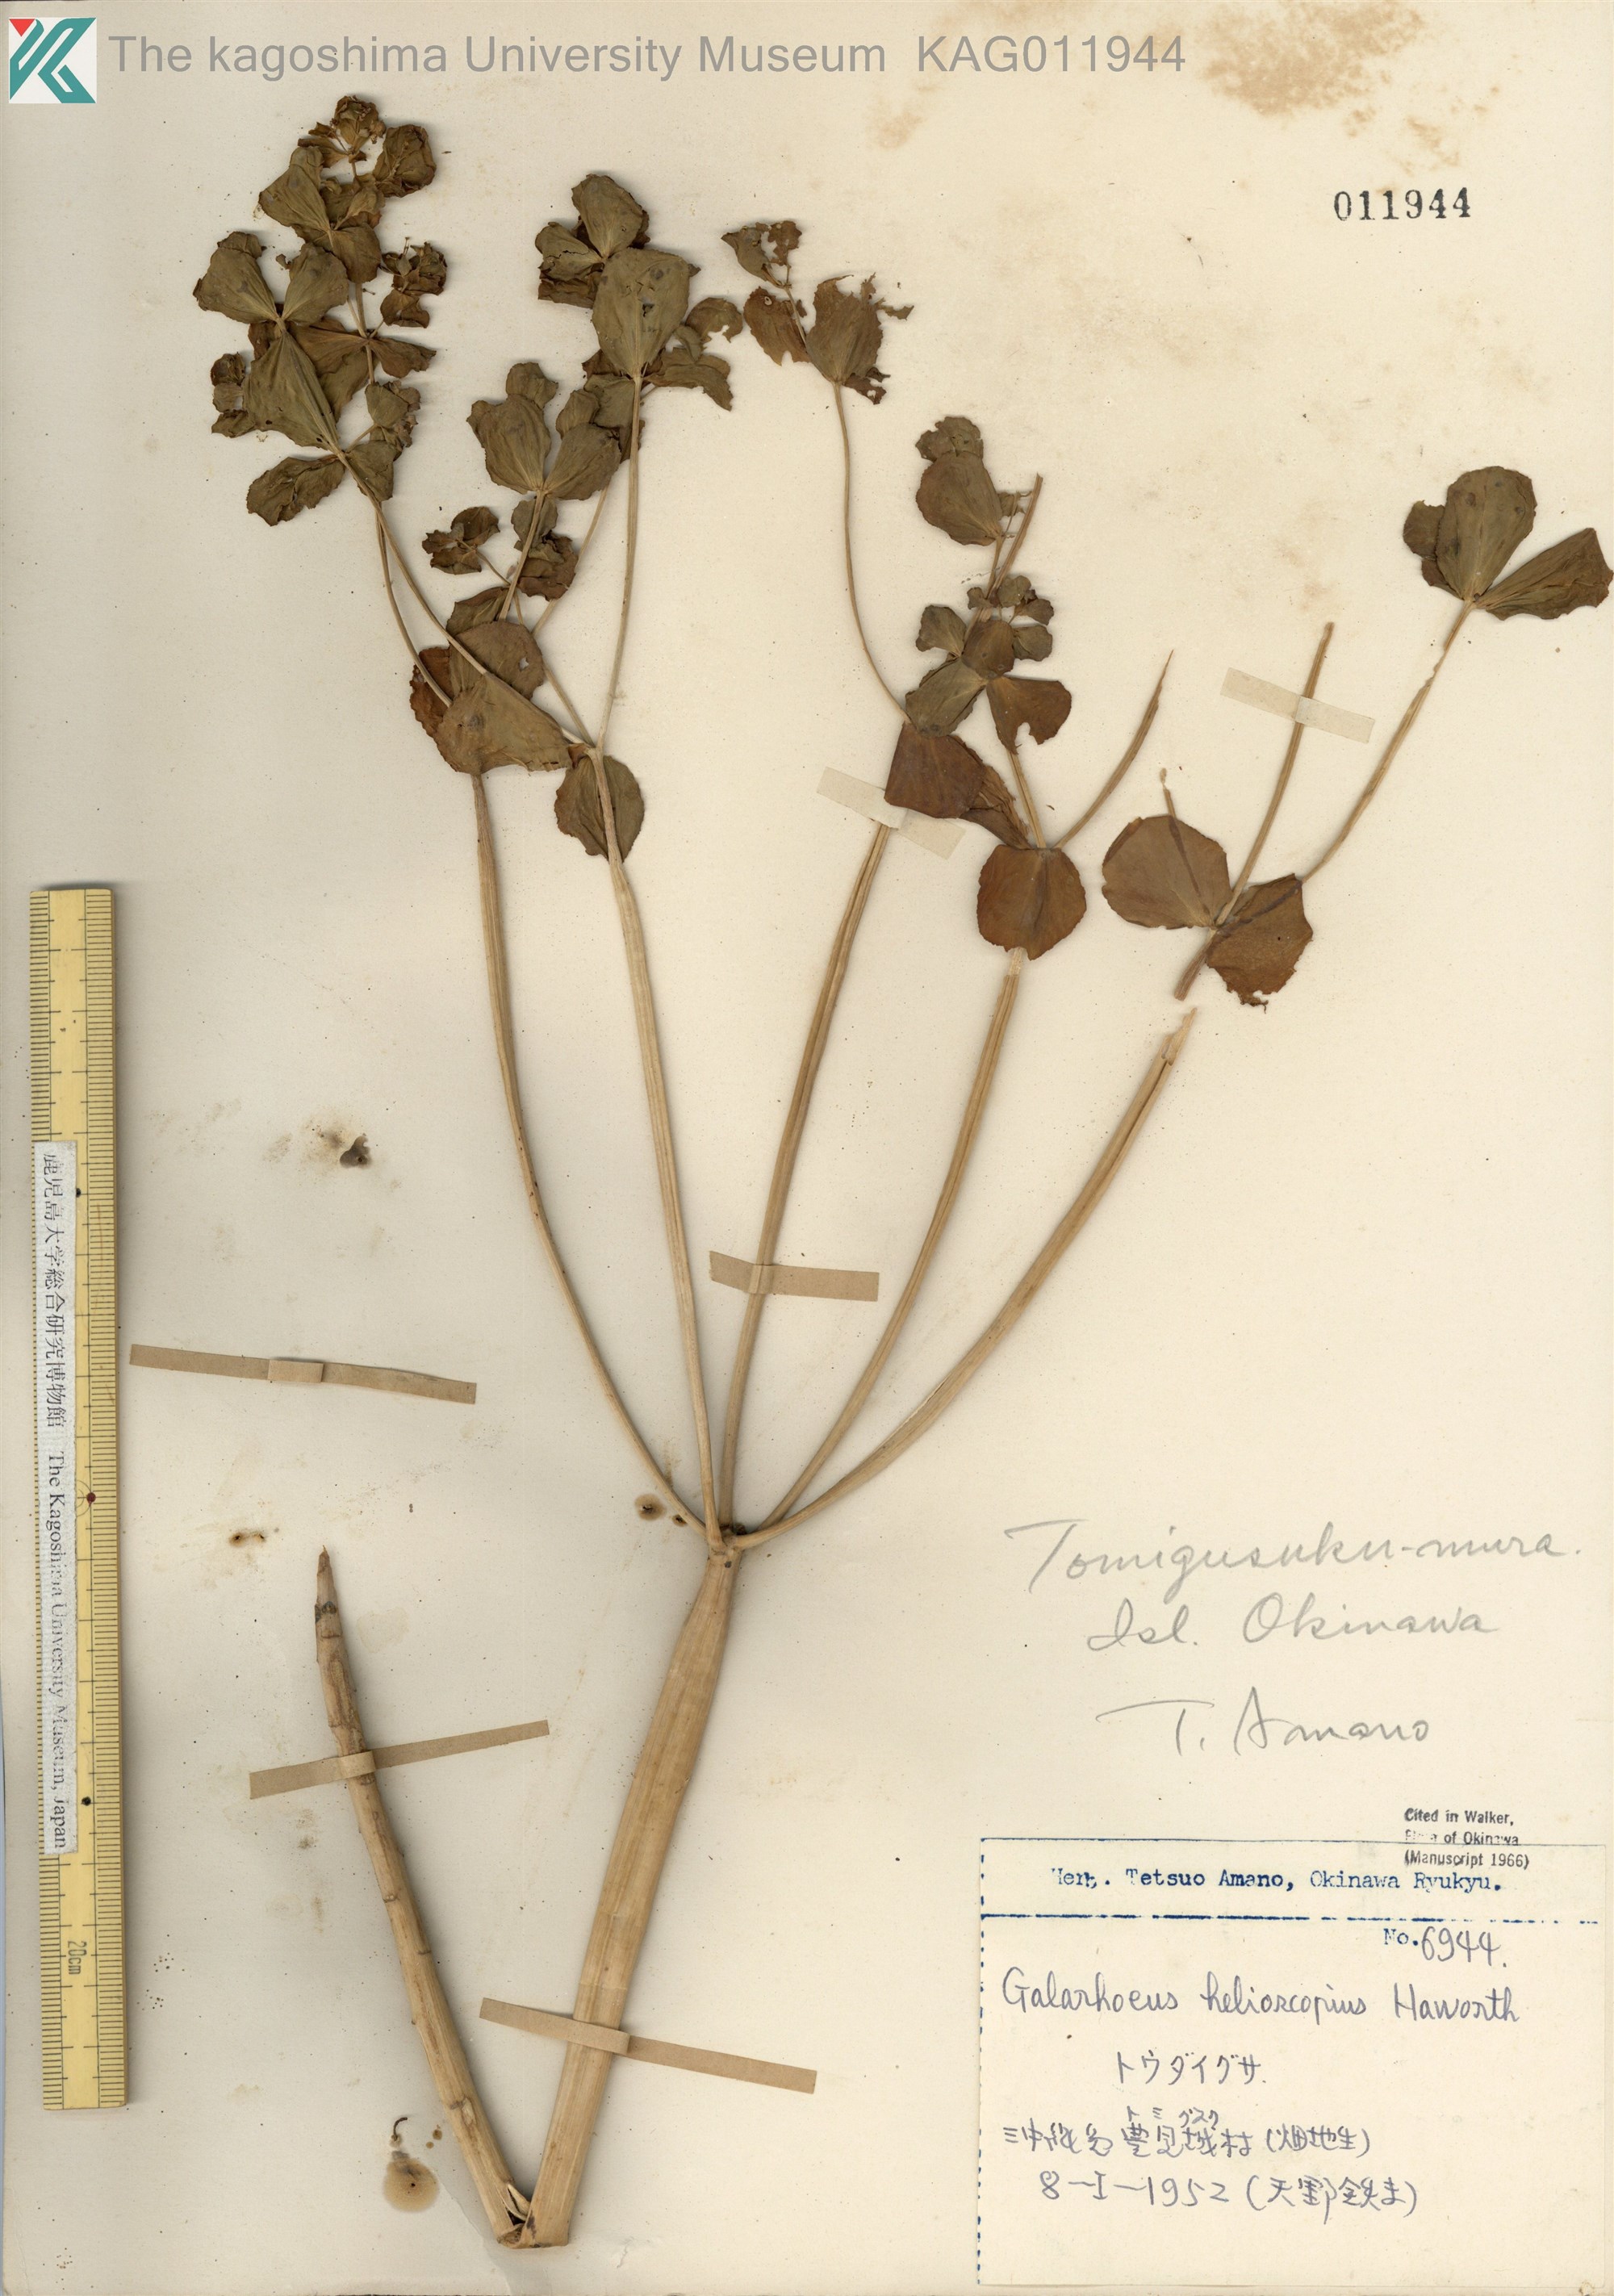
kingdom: Plantae
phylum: Tracheophyta
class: Magnoliopsida
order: Malpighiales
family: Euphorbiaceae
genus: Euphorbia
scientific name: Euphorbia helioscopia
